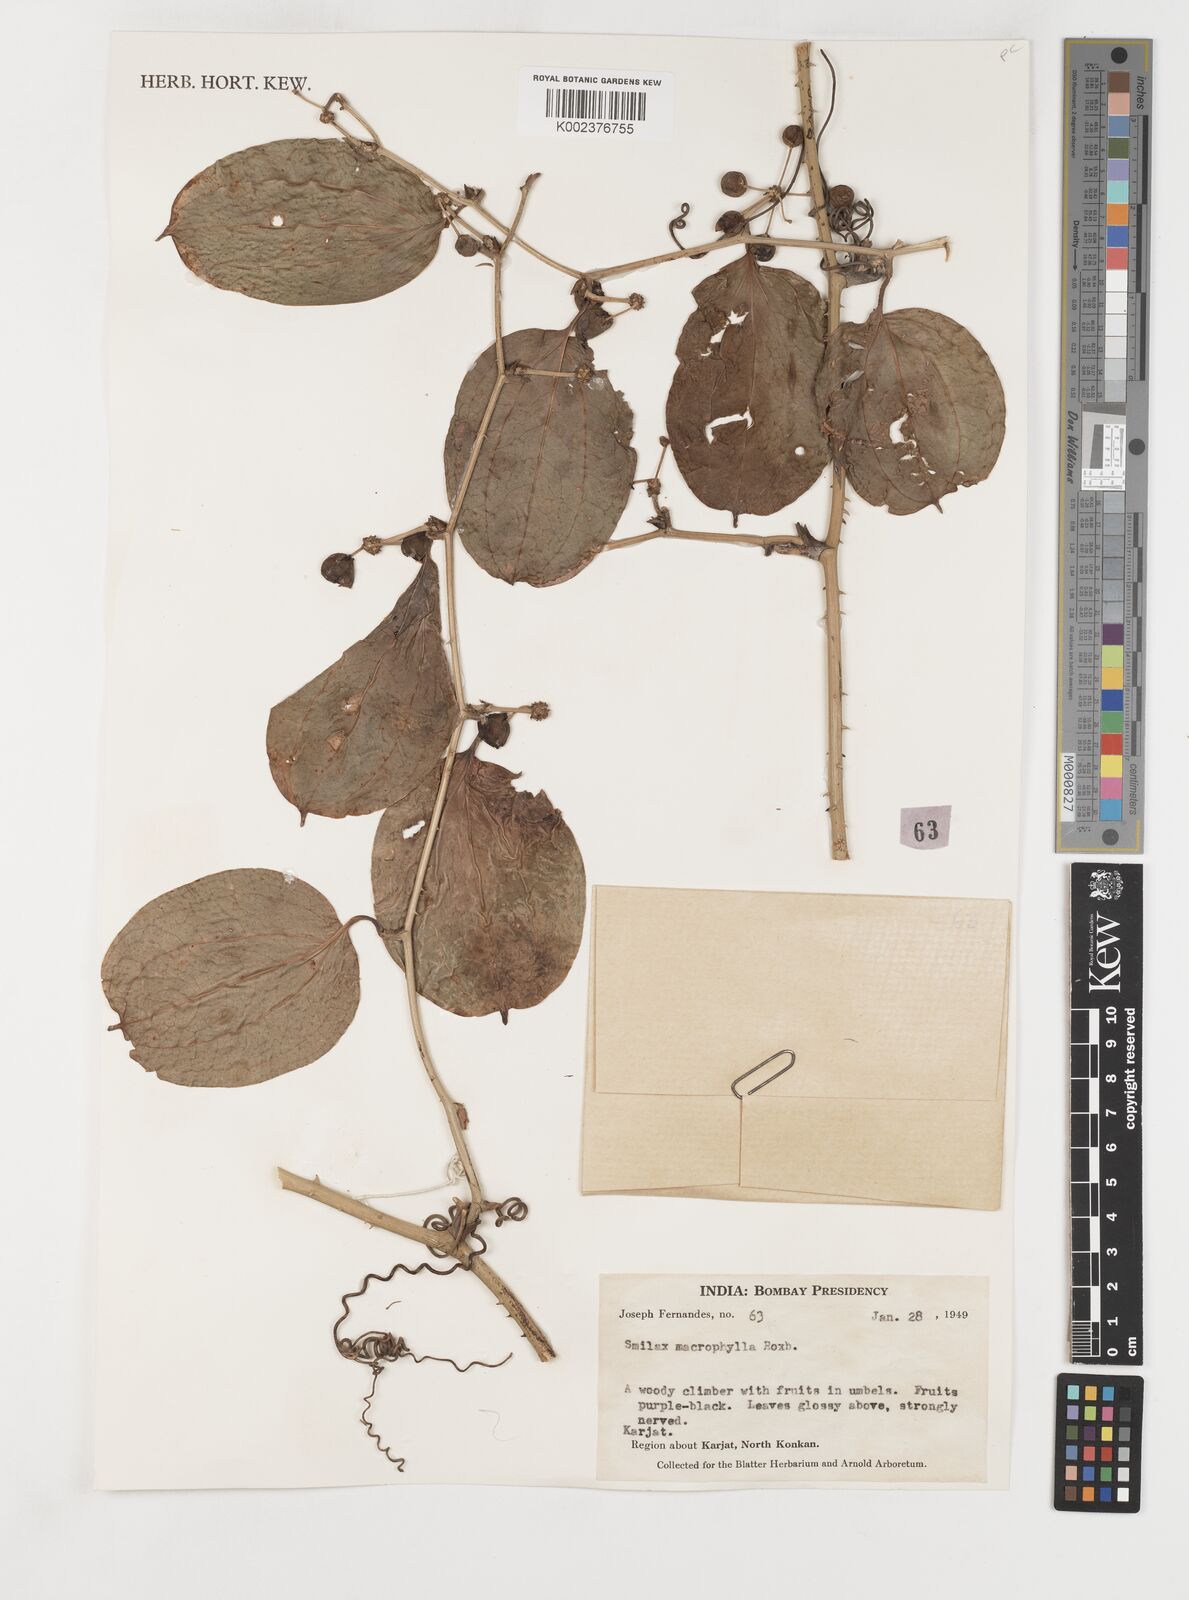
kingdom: Plantae
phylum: Tracheophyta
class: Liliopsida
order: Liliales
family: Smilacaceae
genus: Smilax
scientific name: Smilax ovalifolia
